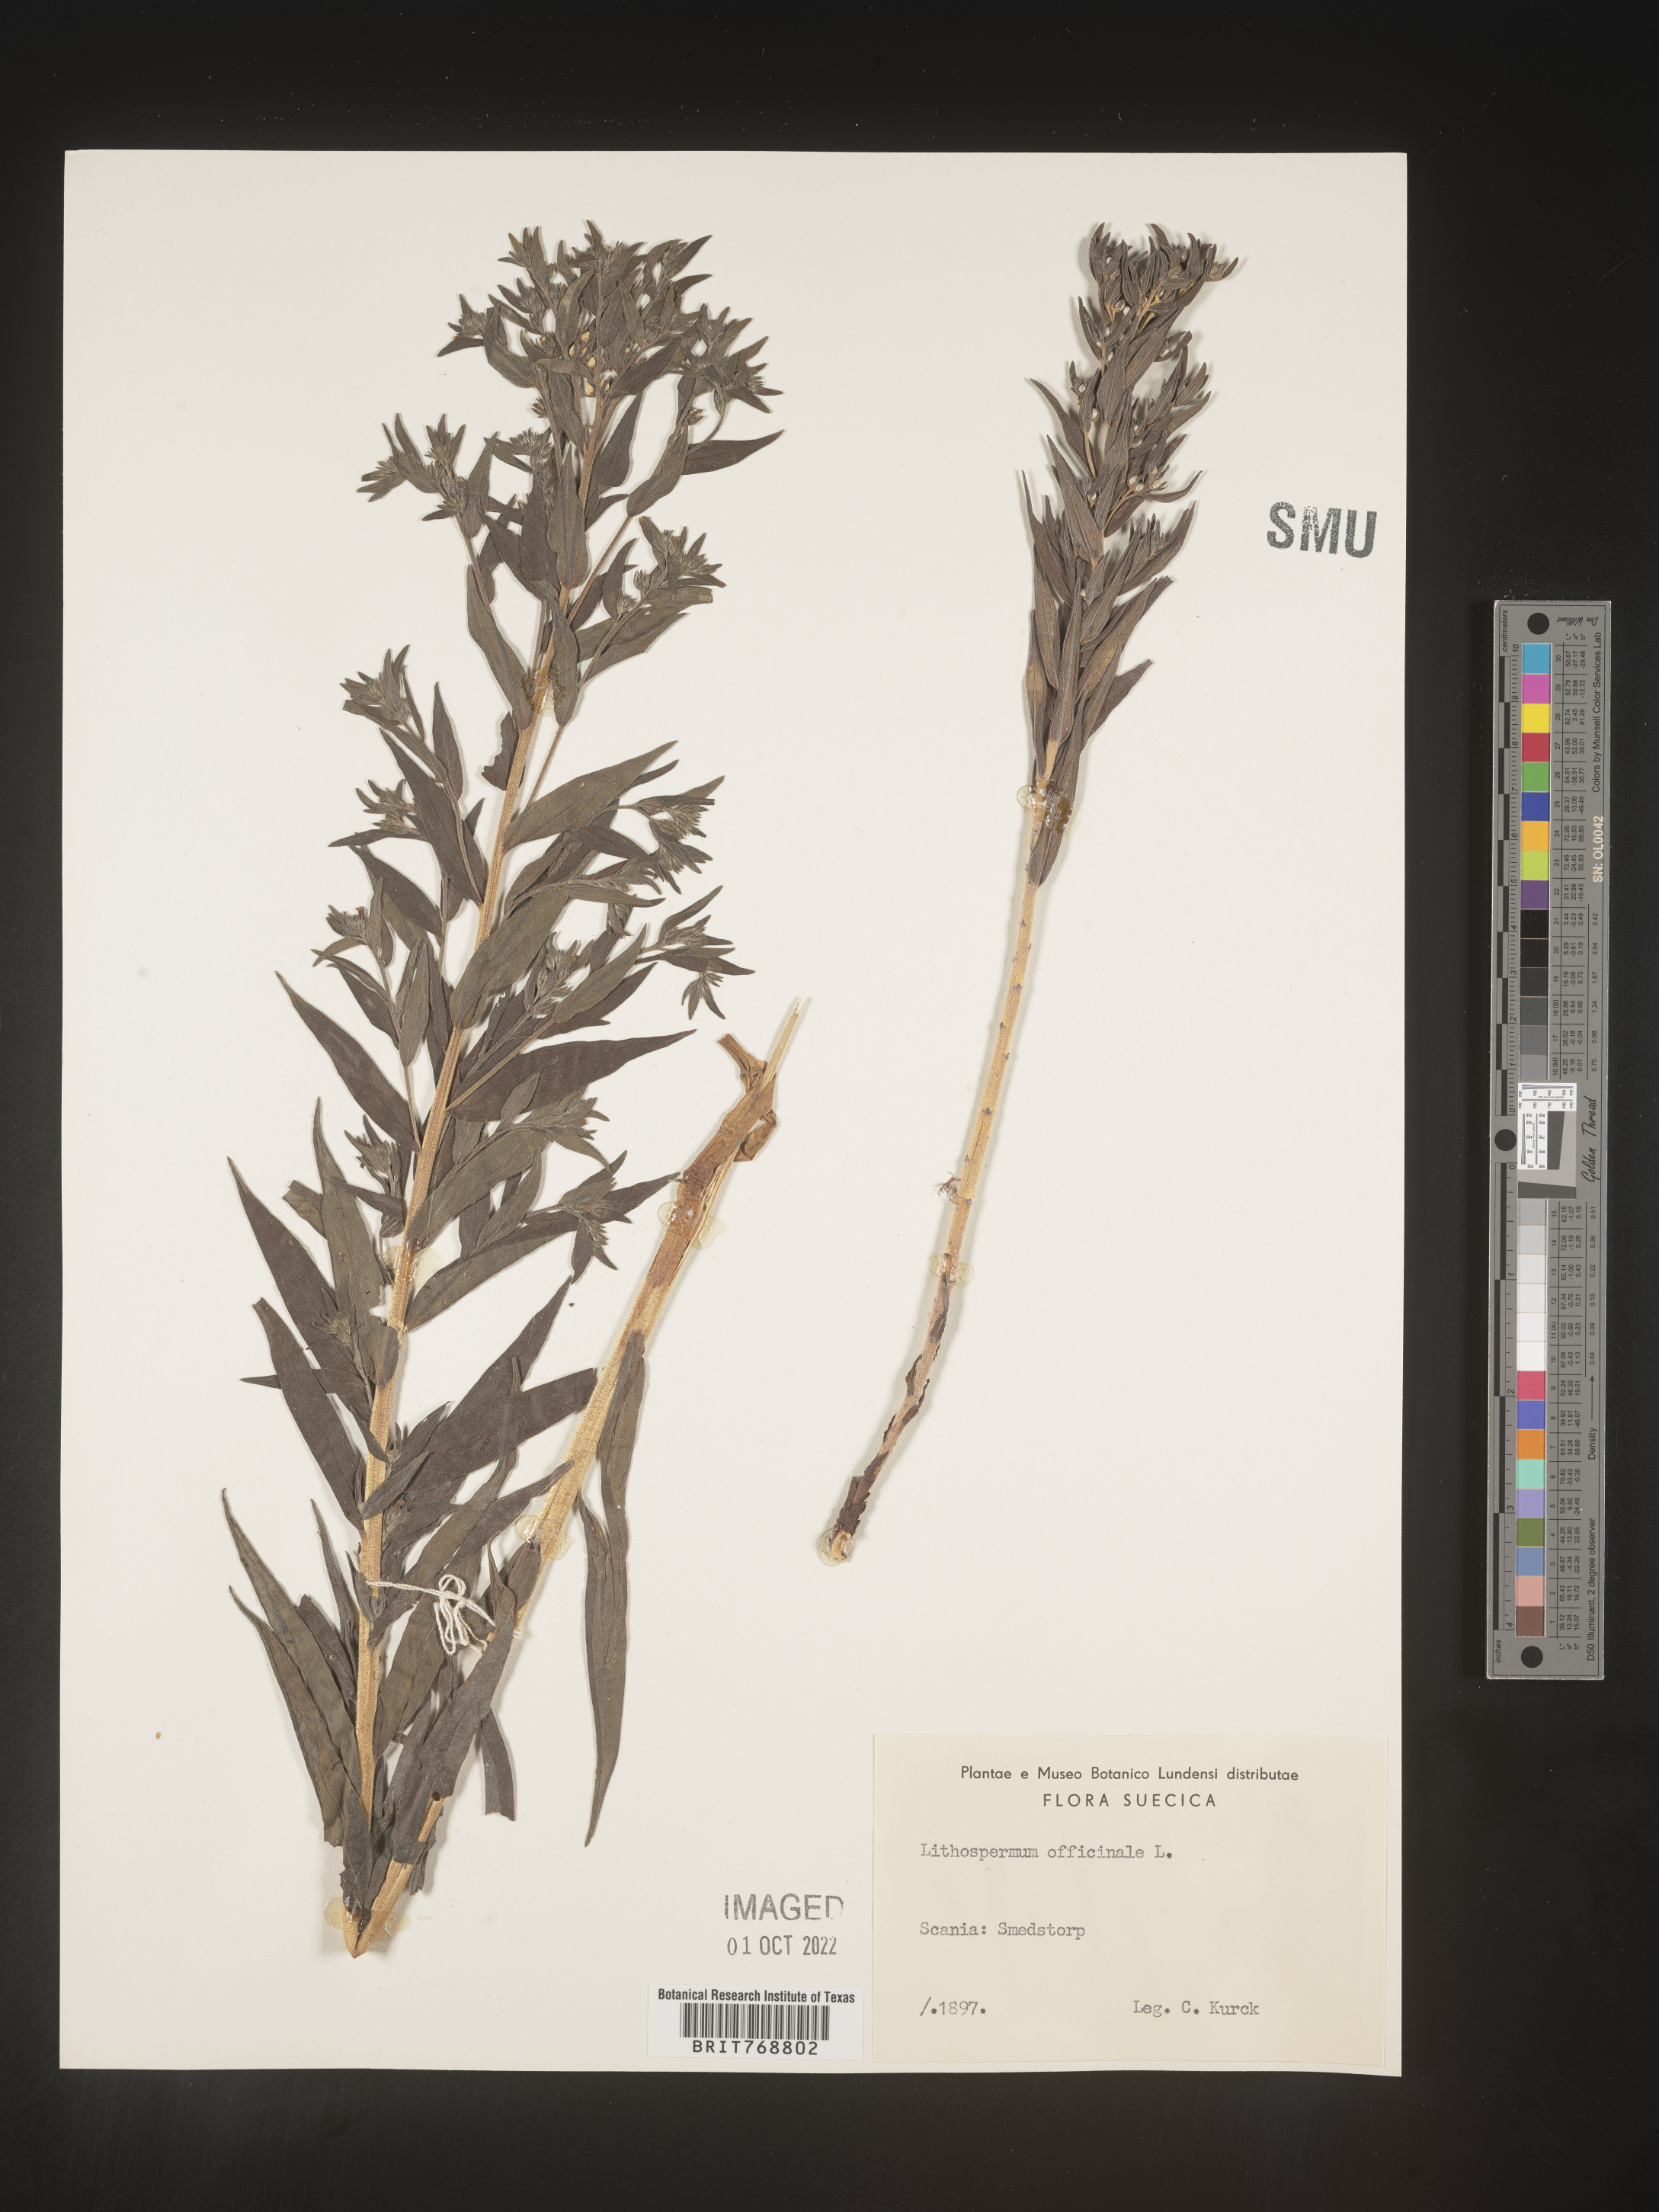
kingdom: Plantae
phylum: Tracheophyta
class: Magnoliopsida
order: Boraginales
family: Boraginaceae
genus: Lithospermum
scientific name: Lithospermum
